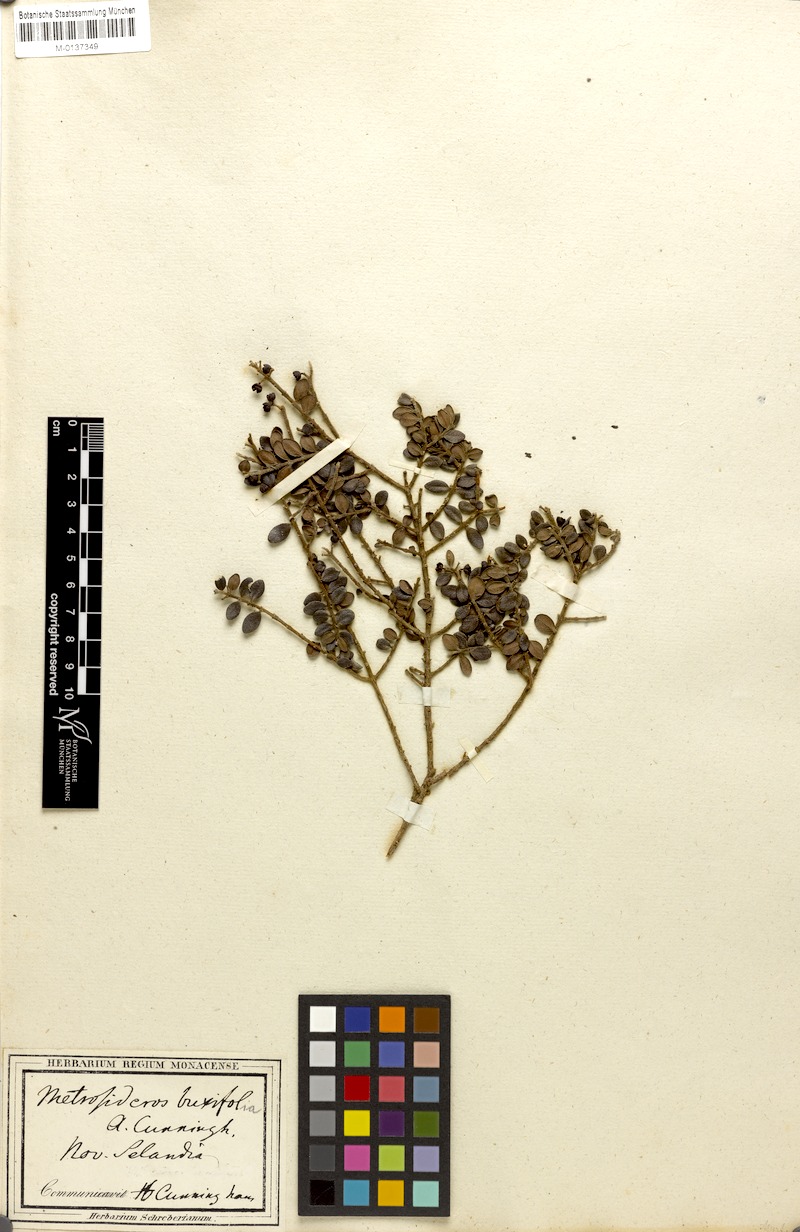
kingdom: Plantae
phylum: Tracheophyta
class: Magnoliopsida
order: Myrtales
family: Myrtaceae
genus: Metrosideros
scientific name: Metrosideros perforata
